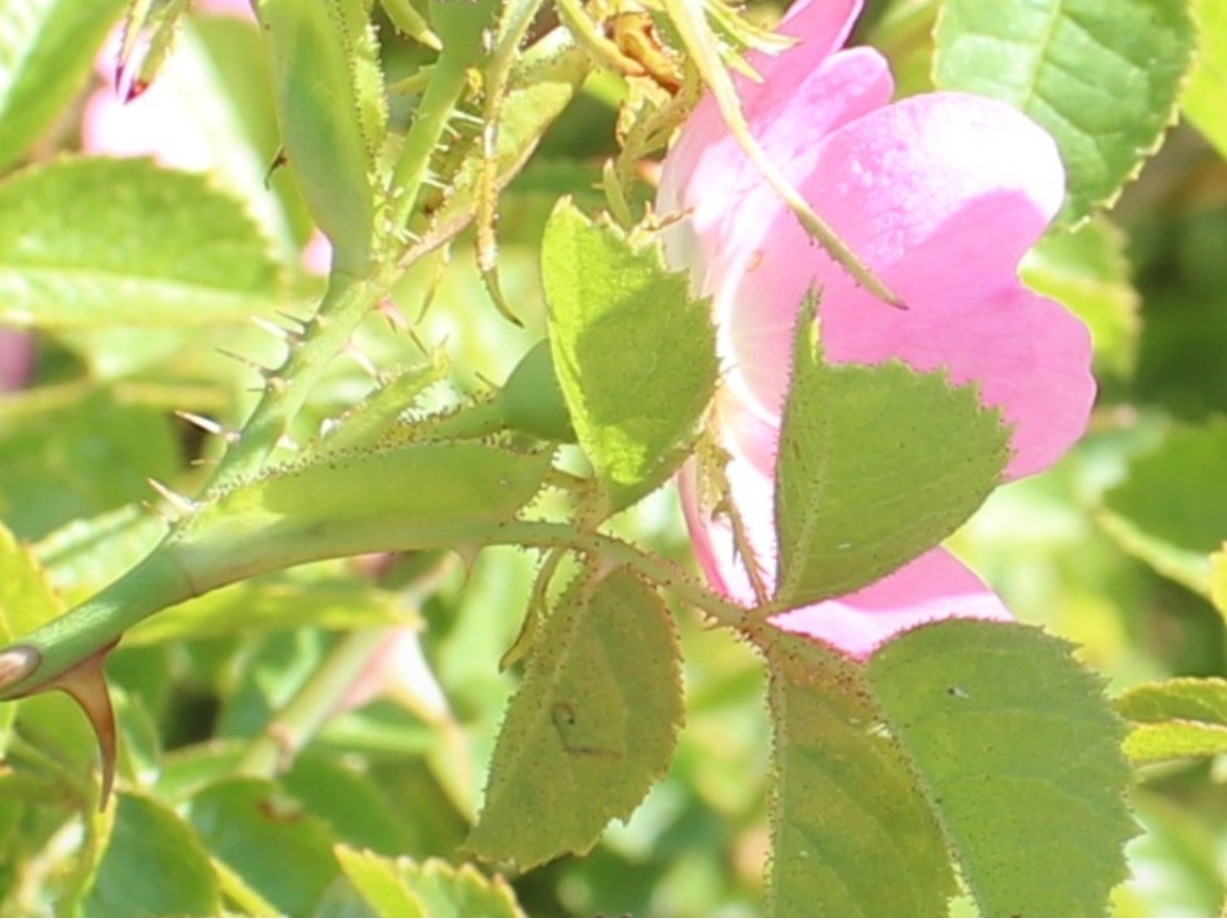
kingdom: Plantae
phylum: Tracheophyta
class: Magnoliopsida
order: Rosales
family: Rosaceae
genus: Rosa
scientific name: Rosa rubiginosa
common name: Æble-rose
